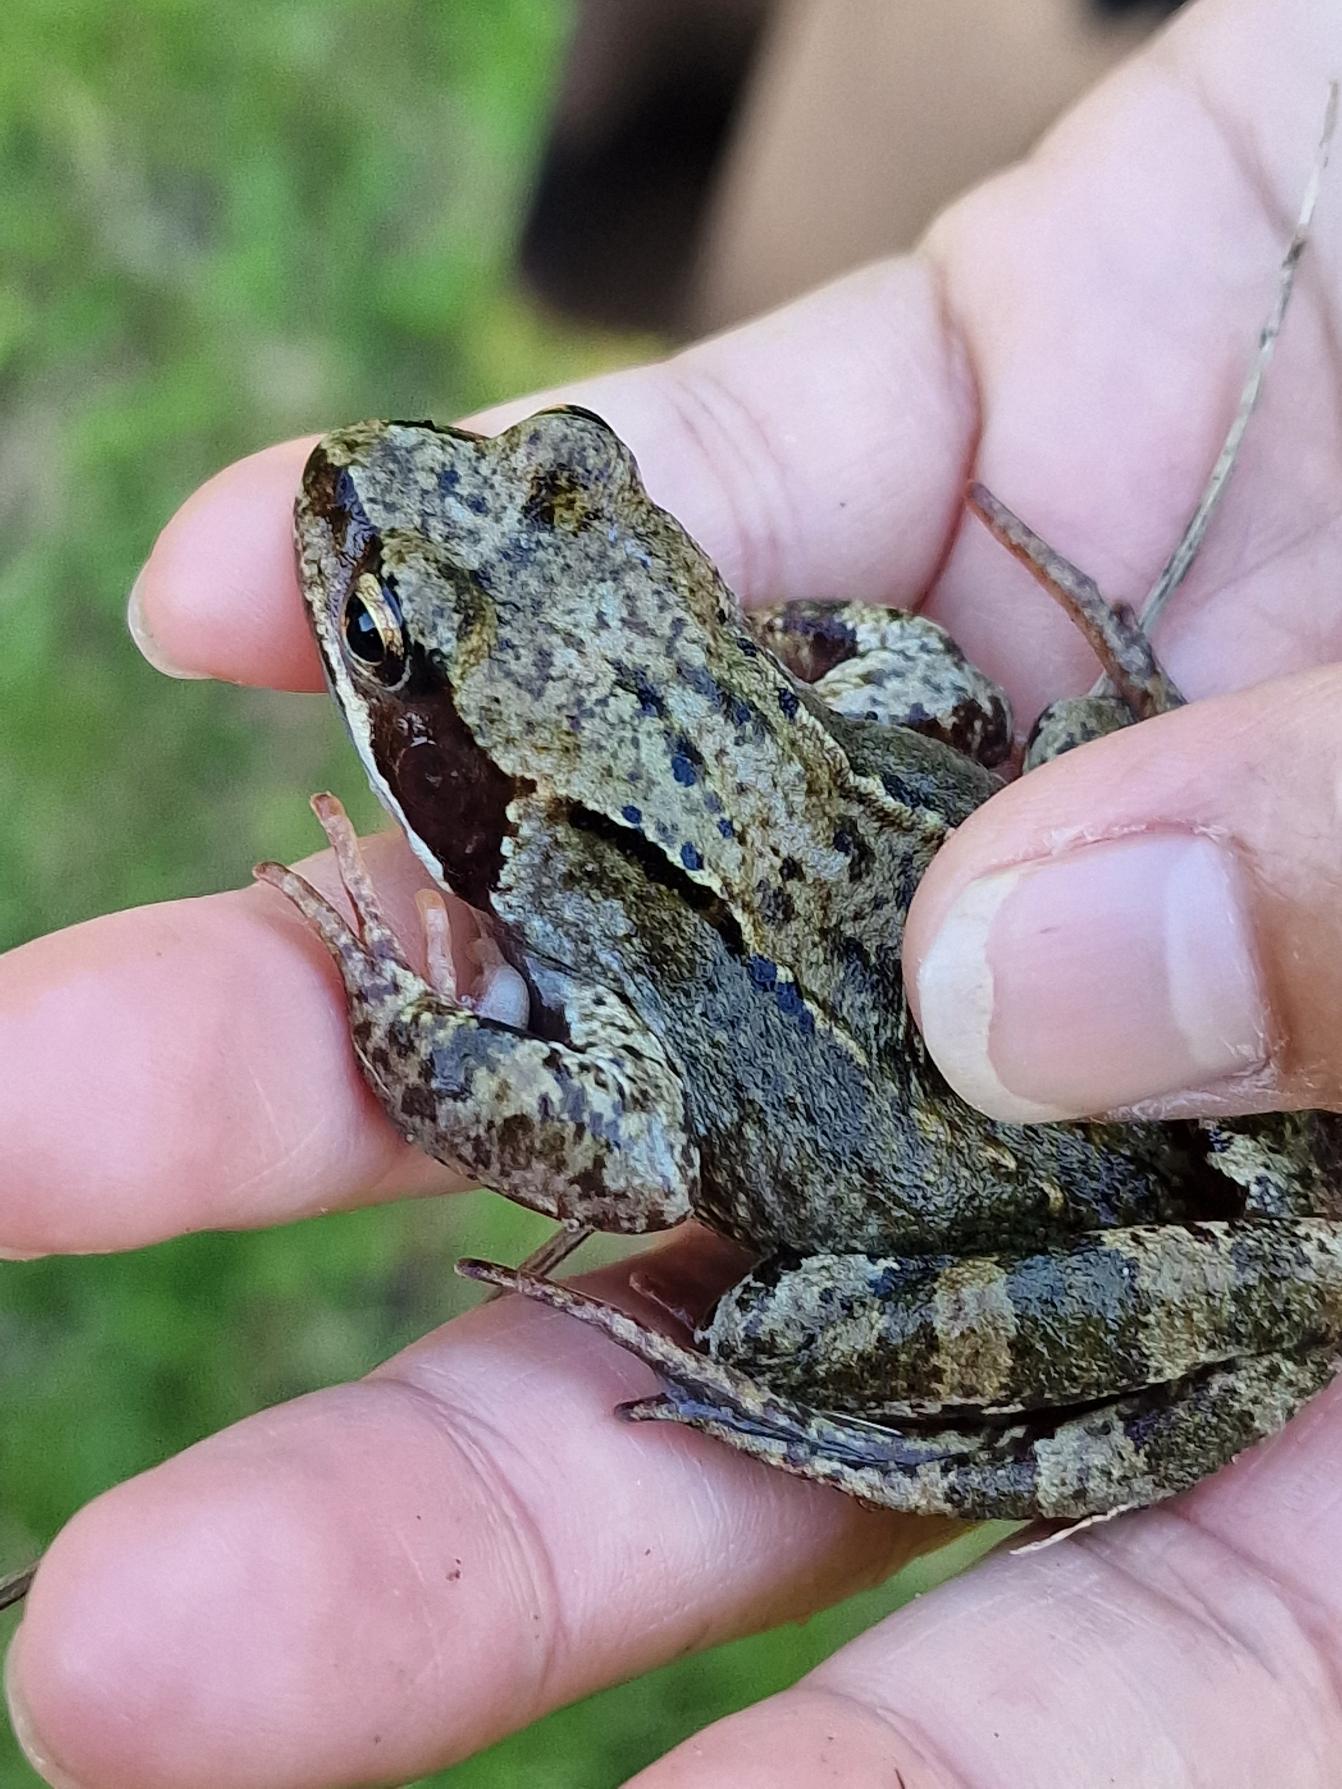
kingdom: Animalia
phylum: Chordata
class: Amphibia
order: Anura
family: Ranidae
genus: Rana
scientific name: Rana temporaria
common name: Butsnudet frø
